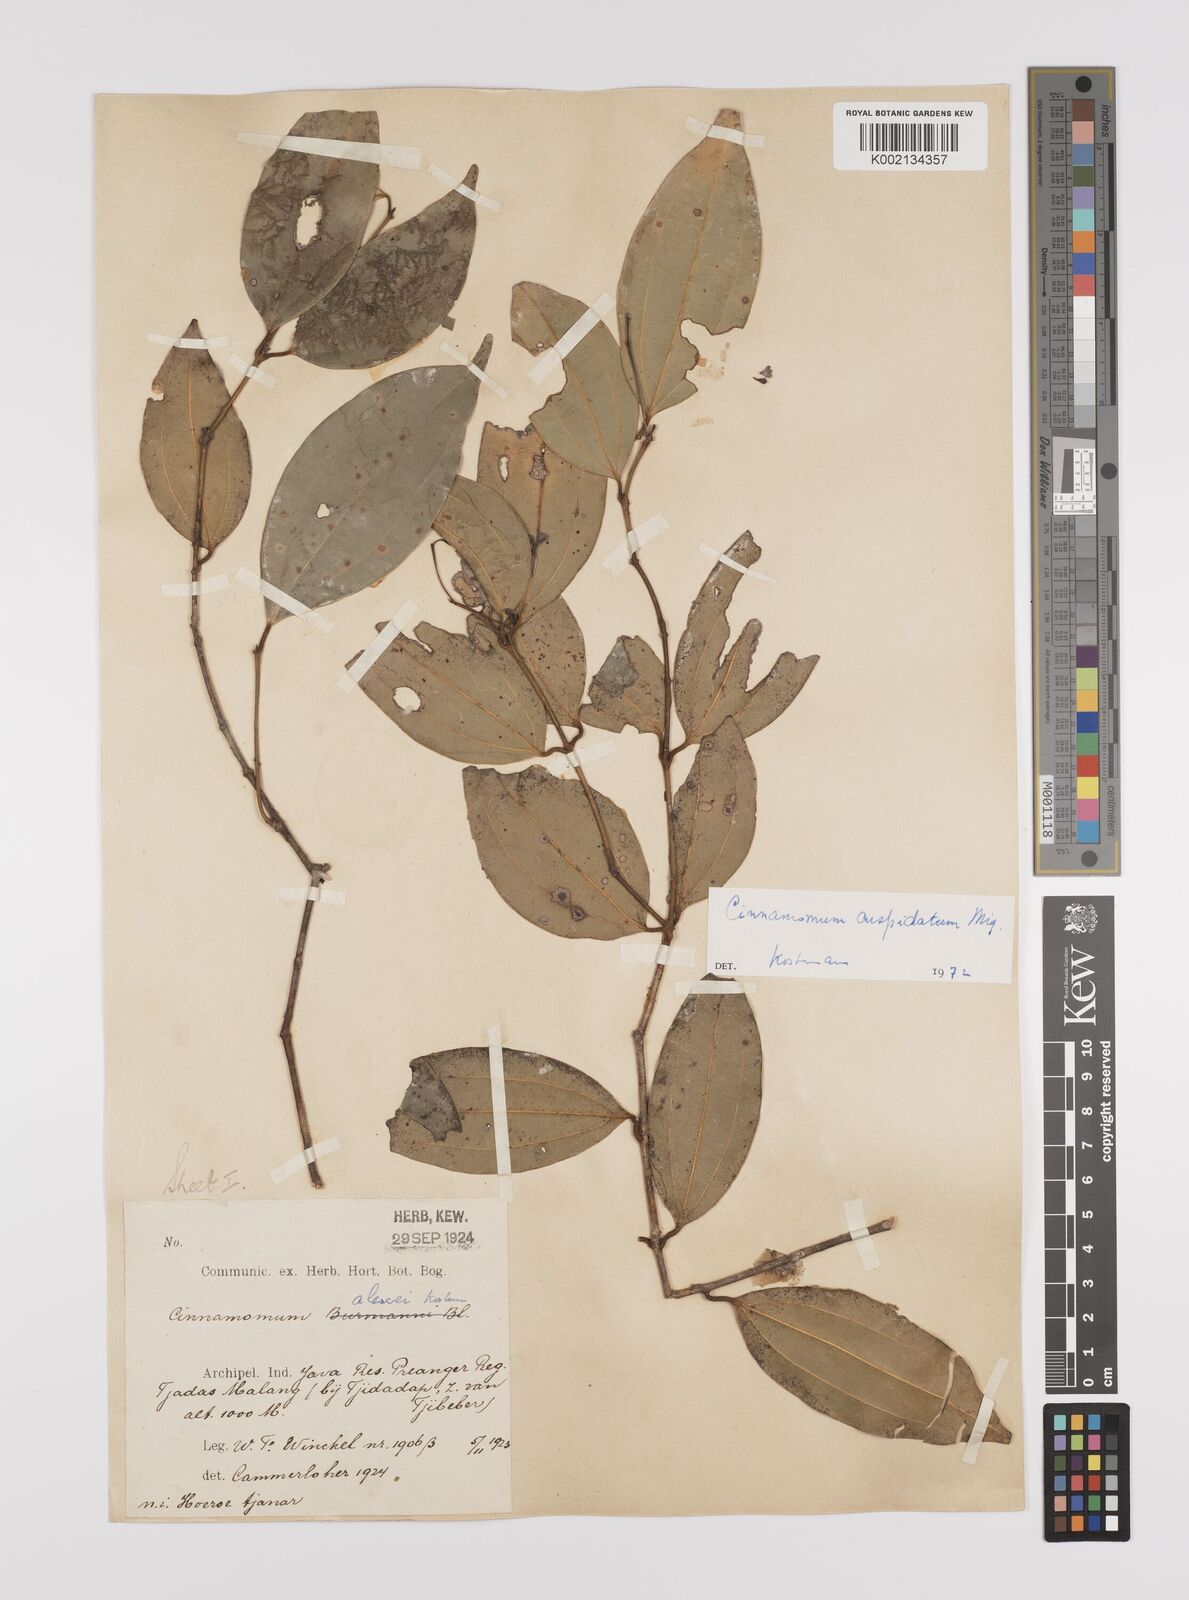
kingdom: Plantae
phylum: Tracheophyta
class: Magnoliopsida
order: Laurales
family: Lauraceae
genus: Cinnamomum
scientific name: Cinnamomum cuspidatum
